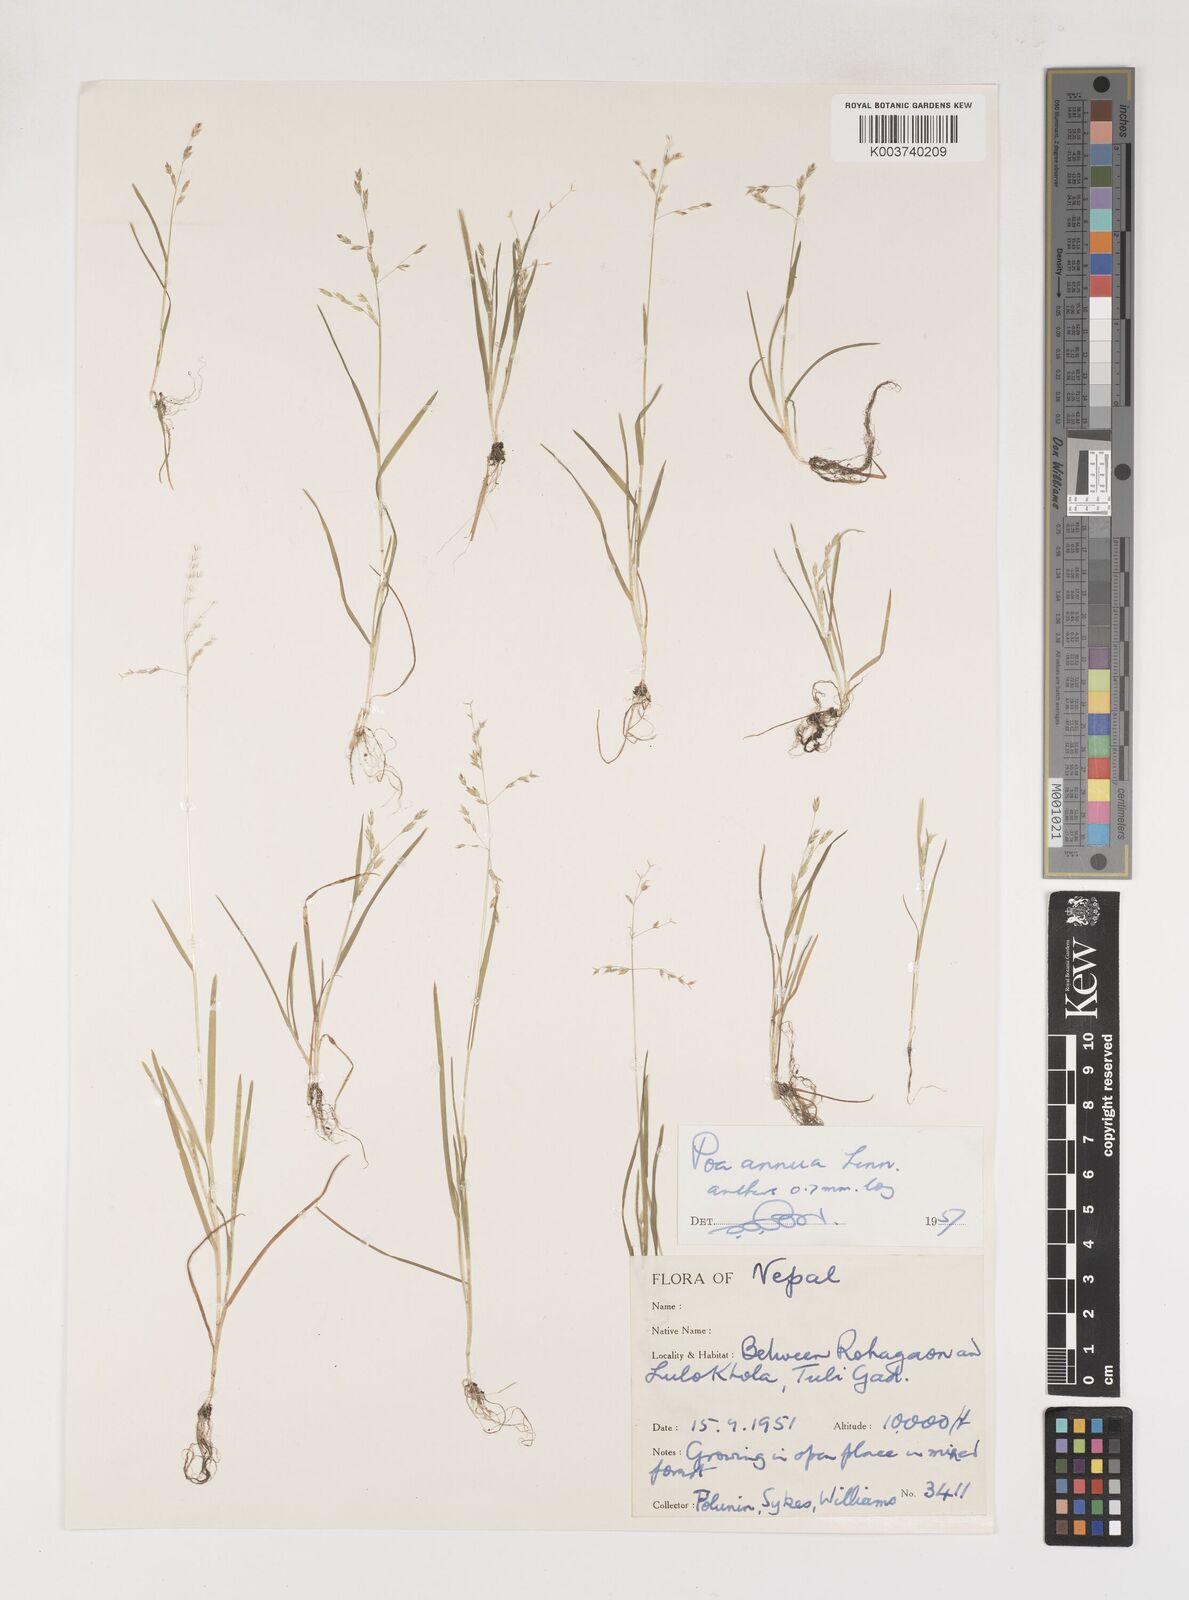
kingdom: Plantae
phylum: Tracheophyta
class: Liliopsida
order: Poales
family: Poaceae
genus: Poa
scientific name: Poa annua
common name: Annual bluegrass
